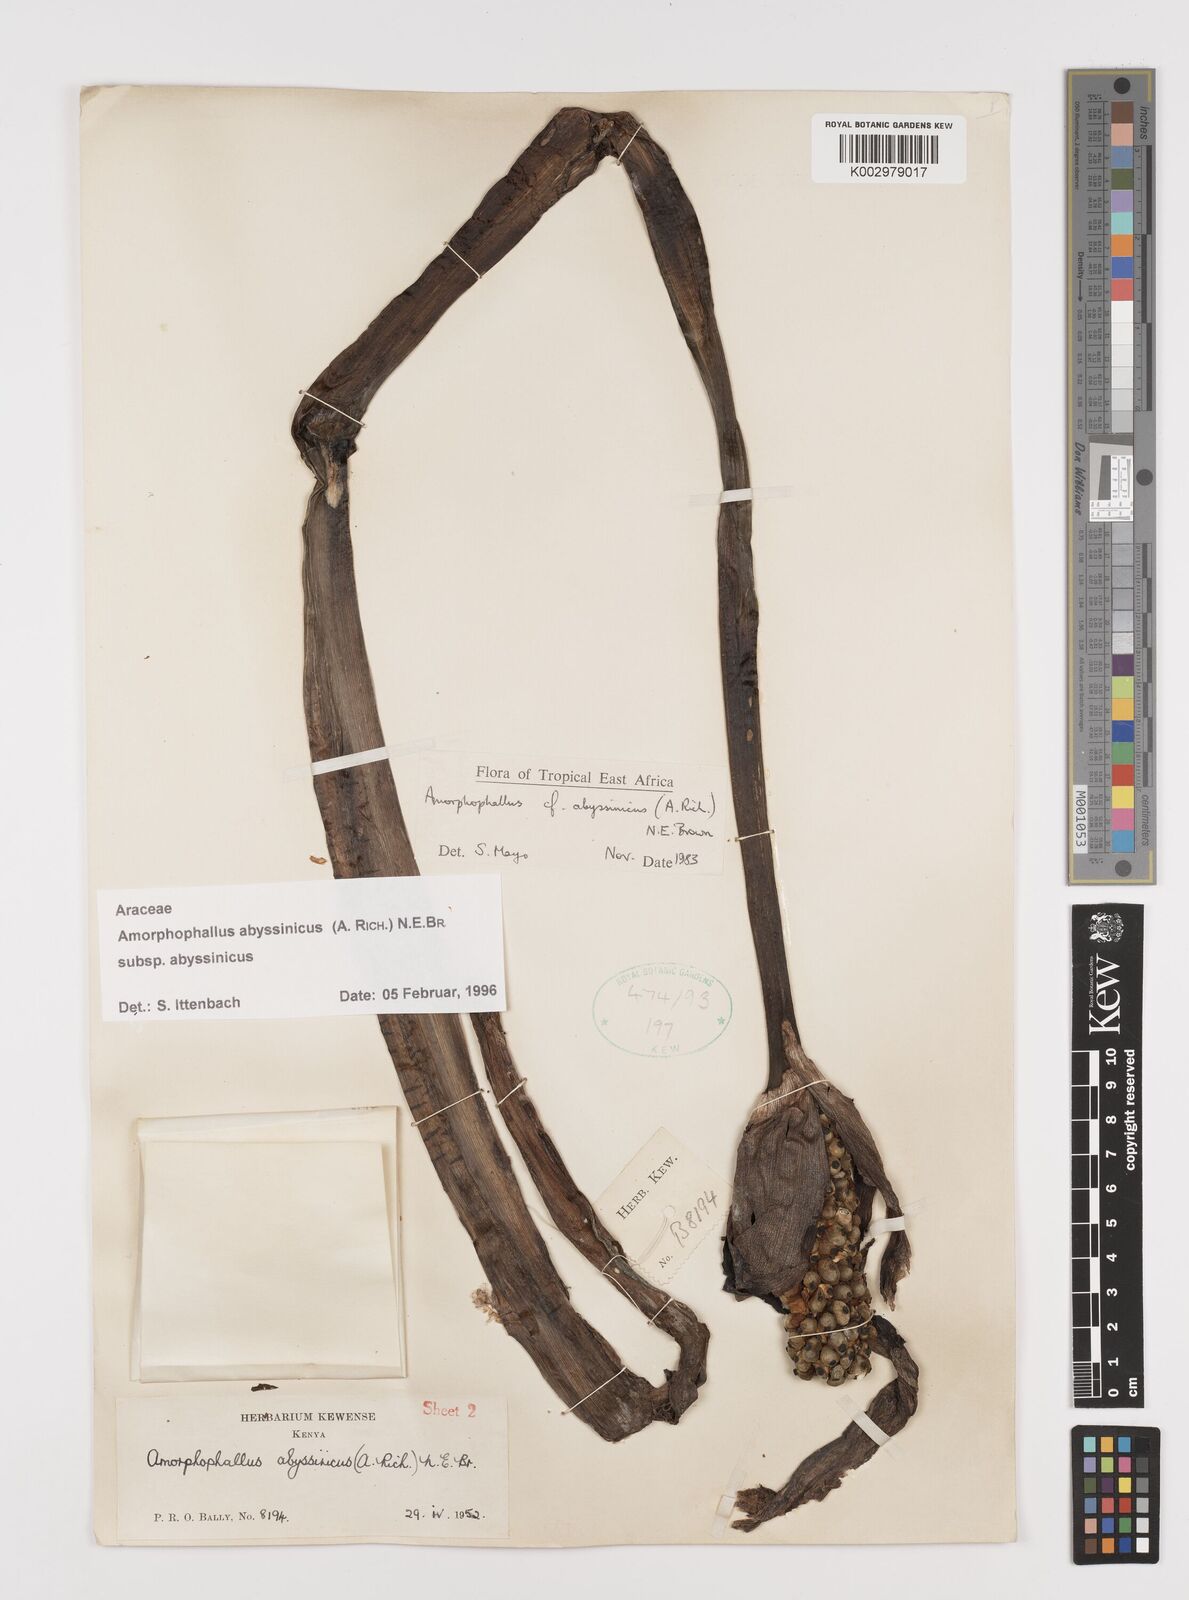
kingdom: Plantae
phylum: Tracheophyta
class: Liliopsida
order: Alismatales
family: Araceae
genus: Amorphophallus
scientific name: Amorphophallus abyssinicus
